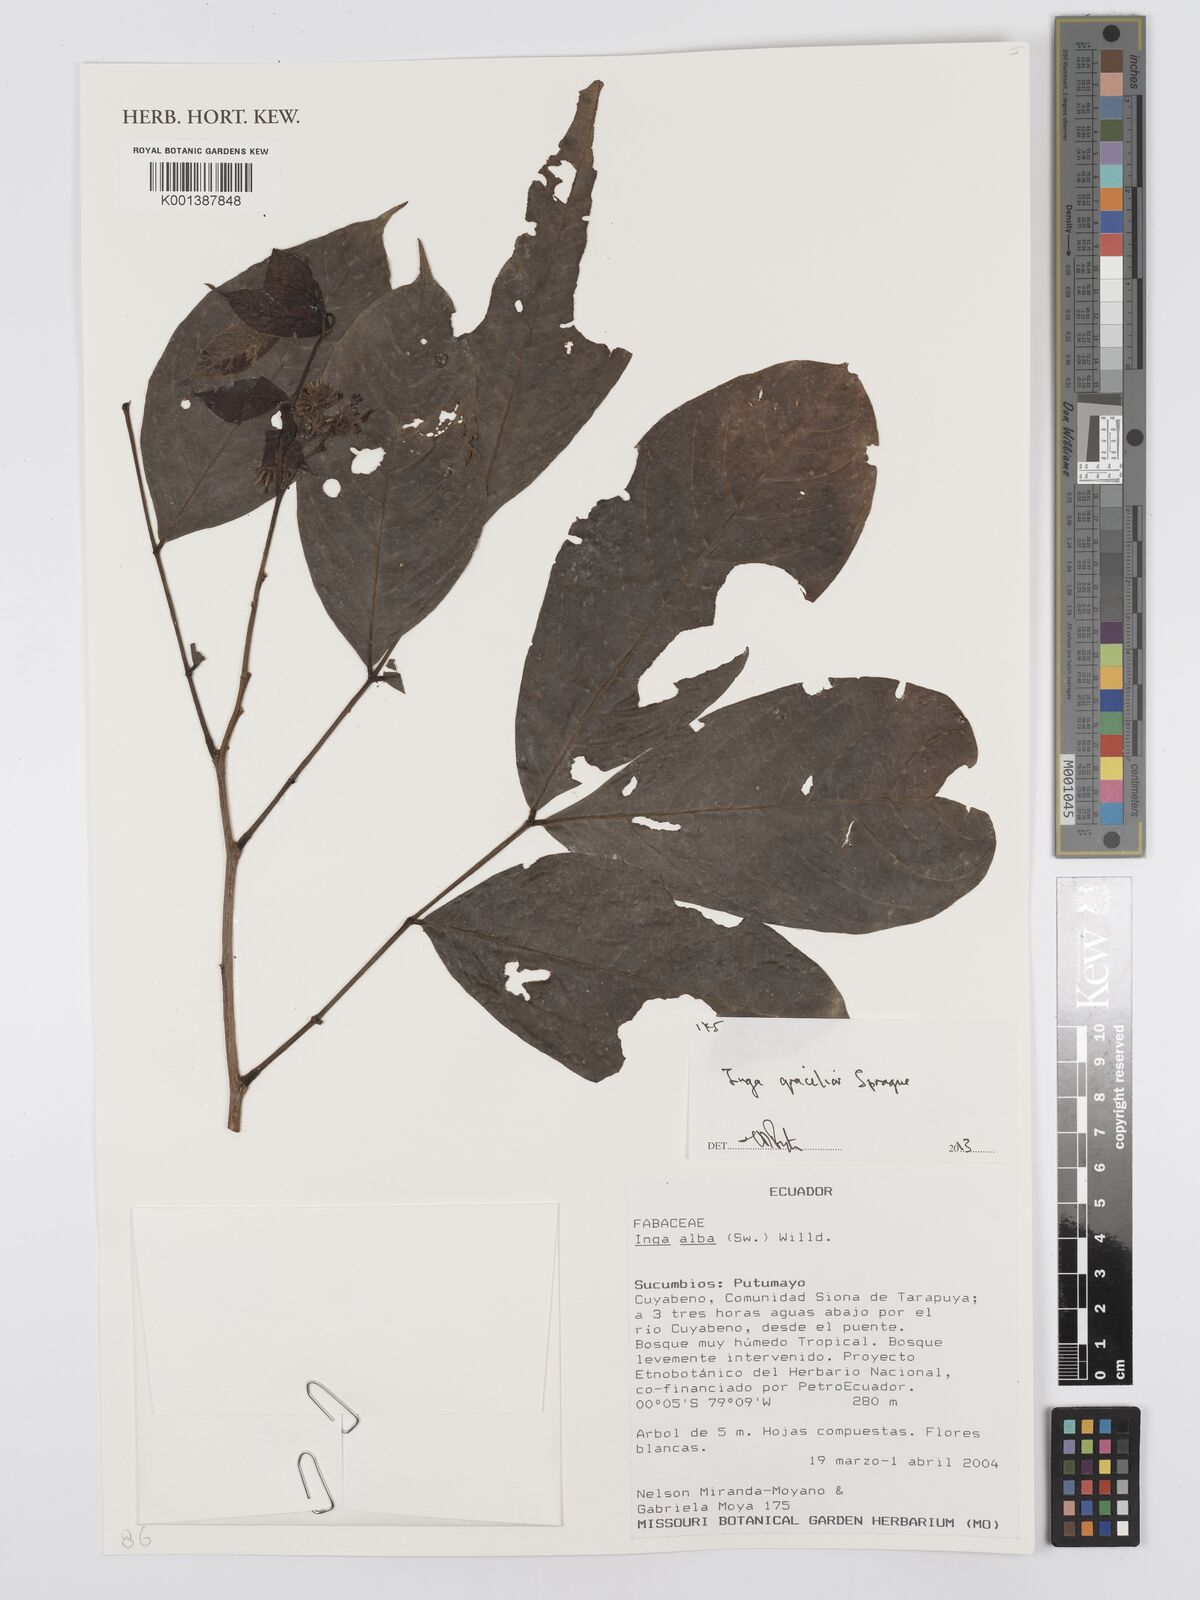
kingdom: Plantae
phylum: Tracheophyta
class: Magnoliopsida
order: Fabales
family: Fabaceae
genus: Inga
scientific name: Inga gracilior
